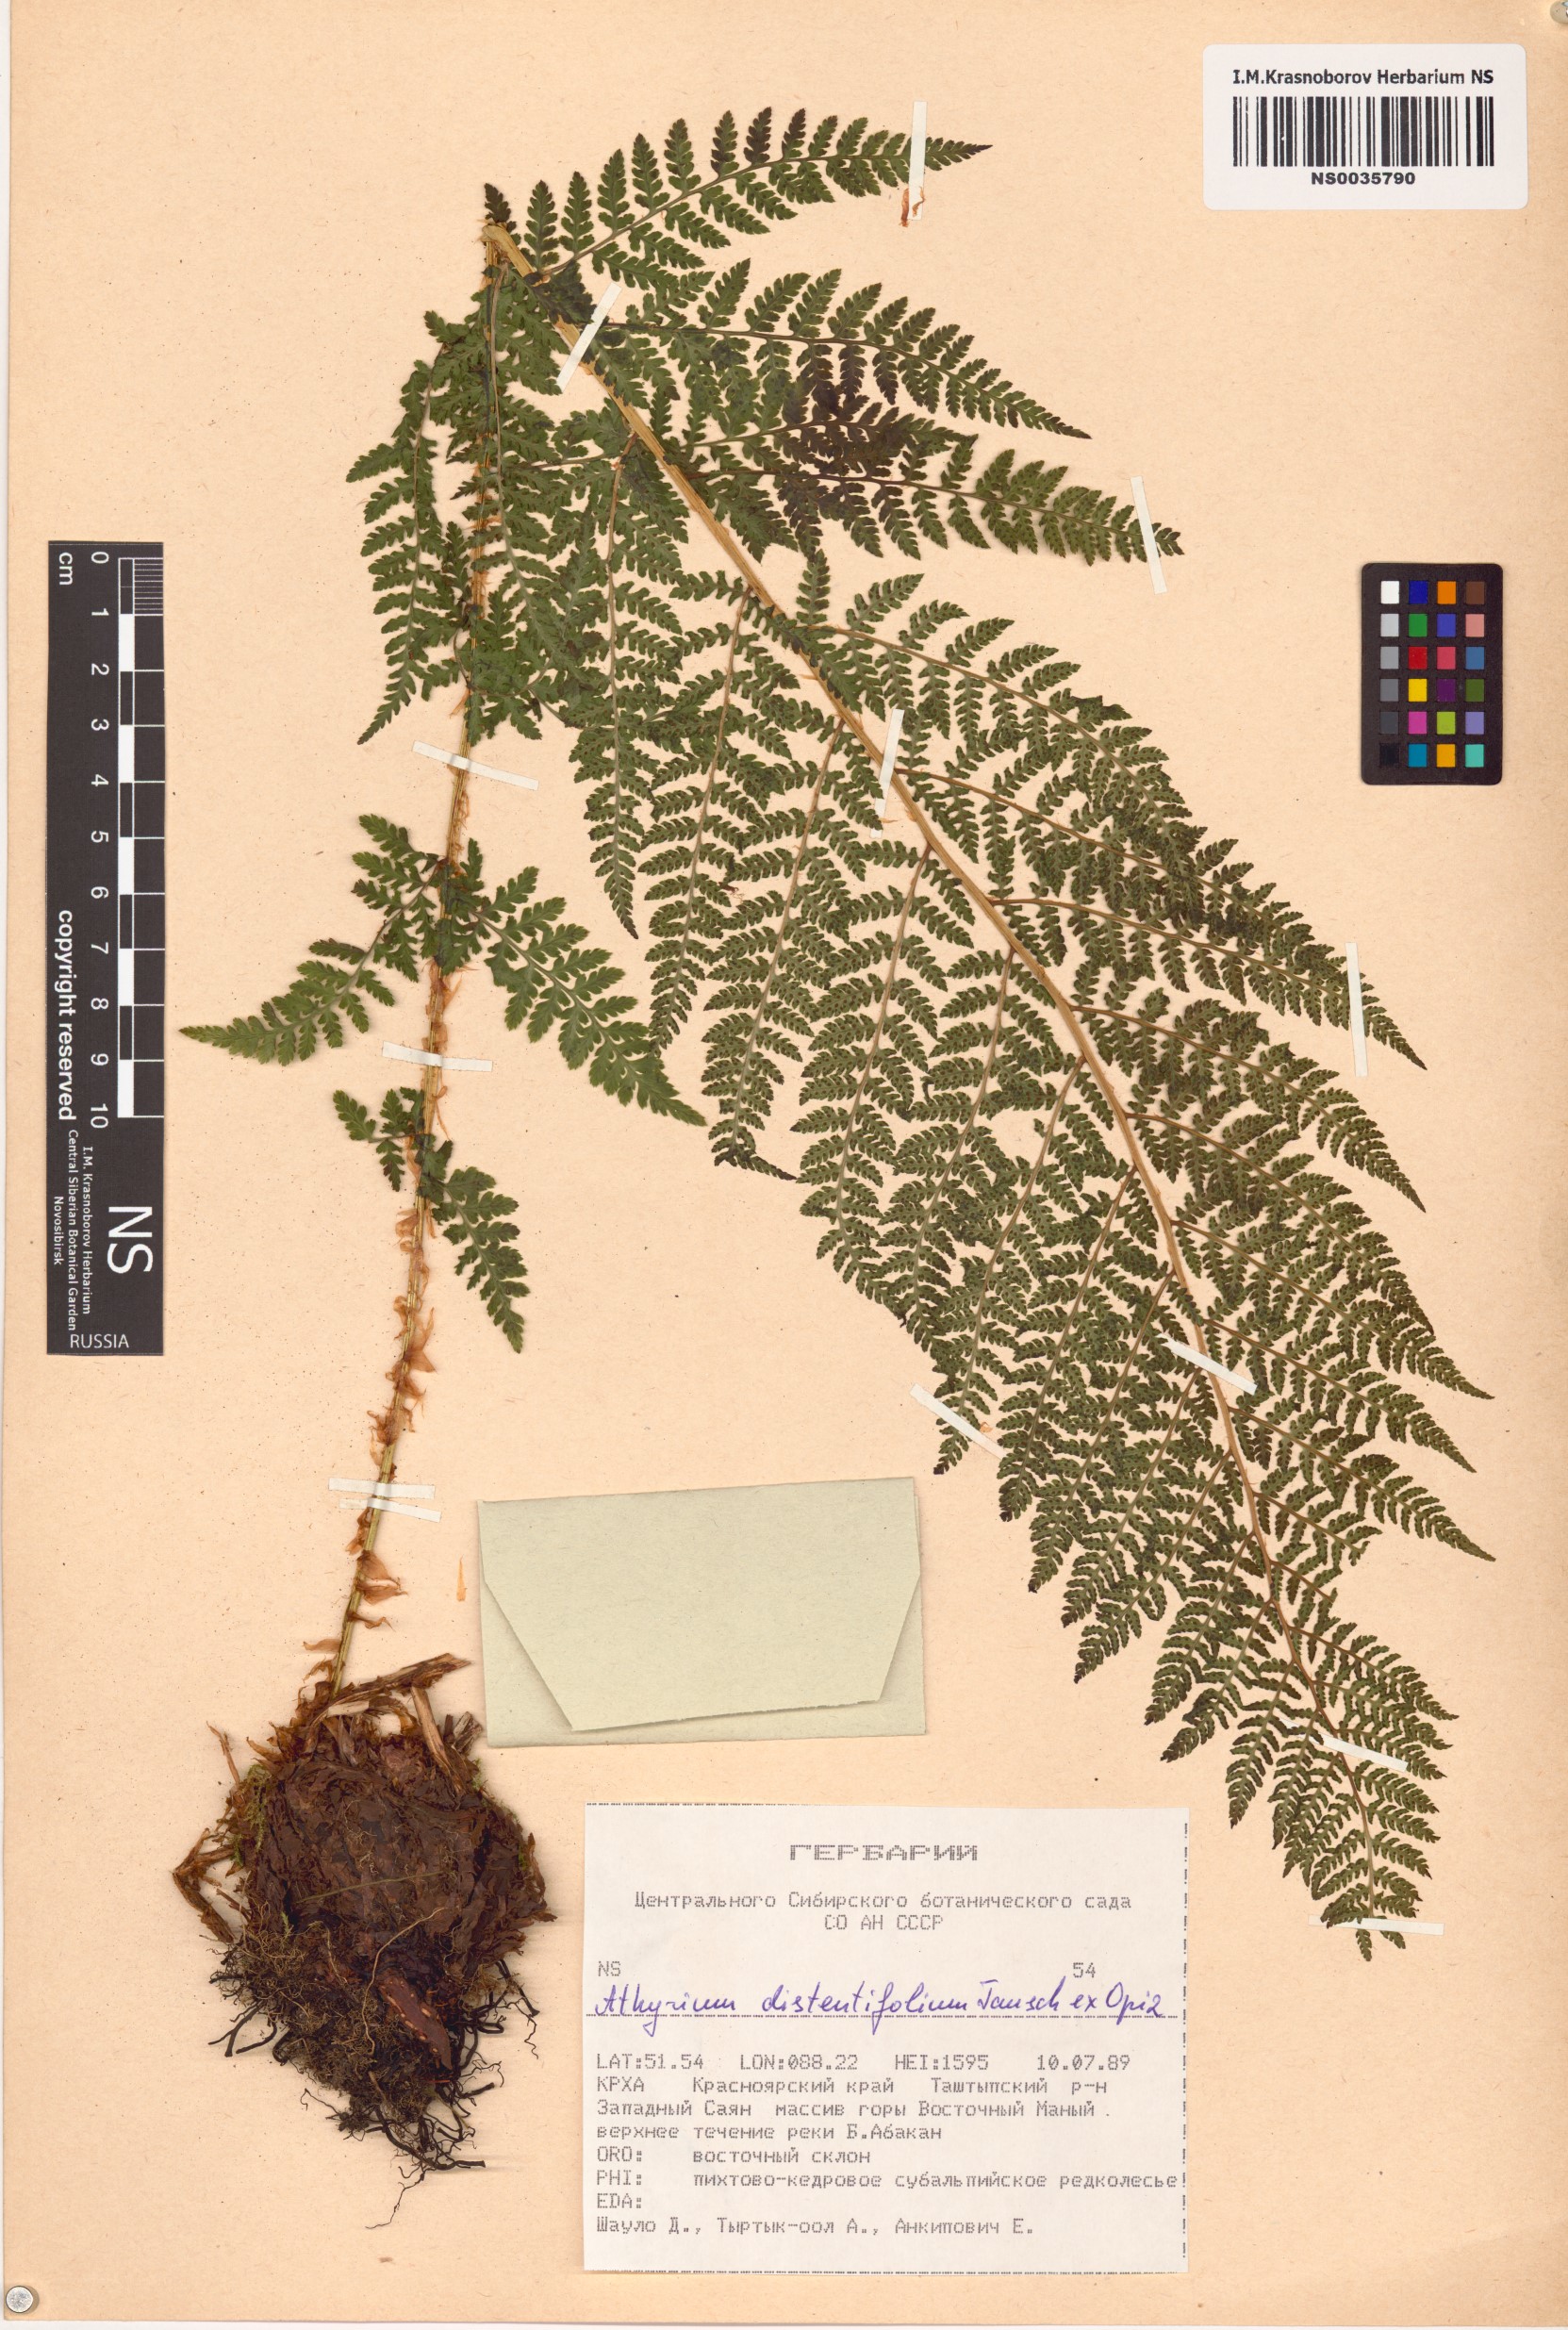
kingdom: Plantae
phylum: Tracheophyta
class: Polypodiopsida
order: Polypodiales
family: Athyriaceae
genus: Pseudathyrium
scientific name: Pseudathyrium alpestre
